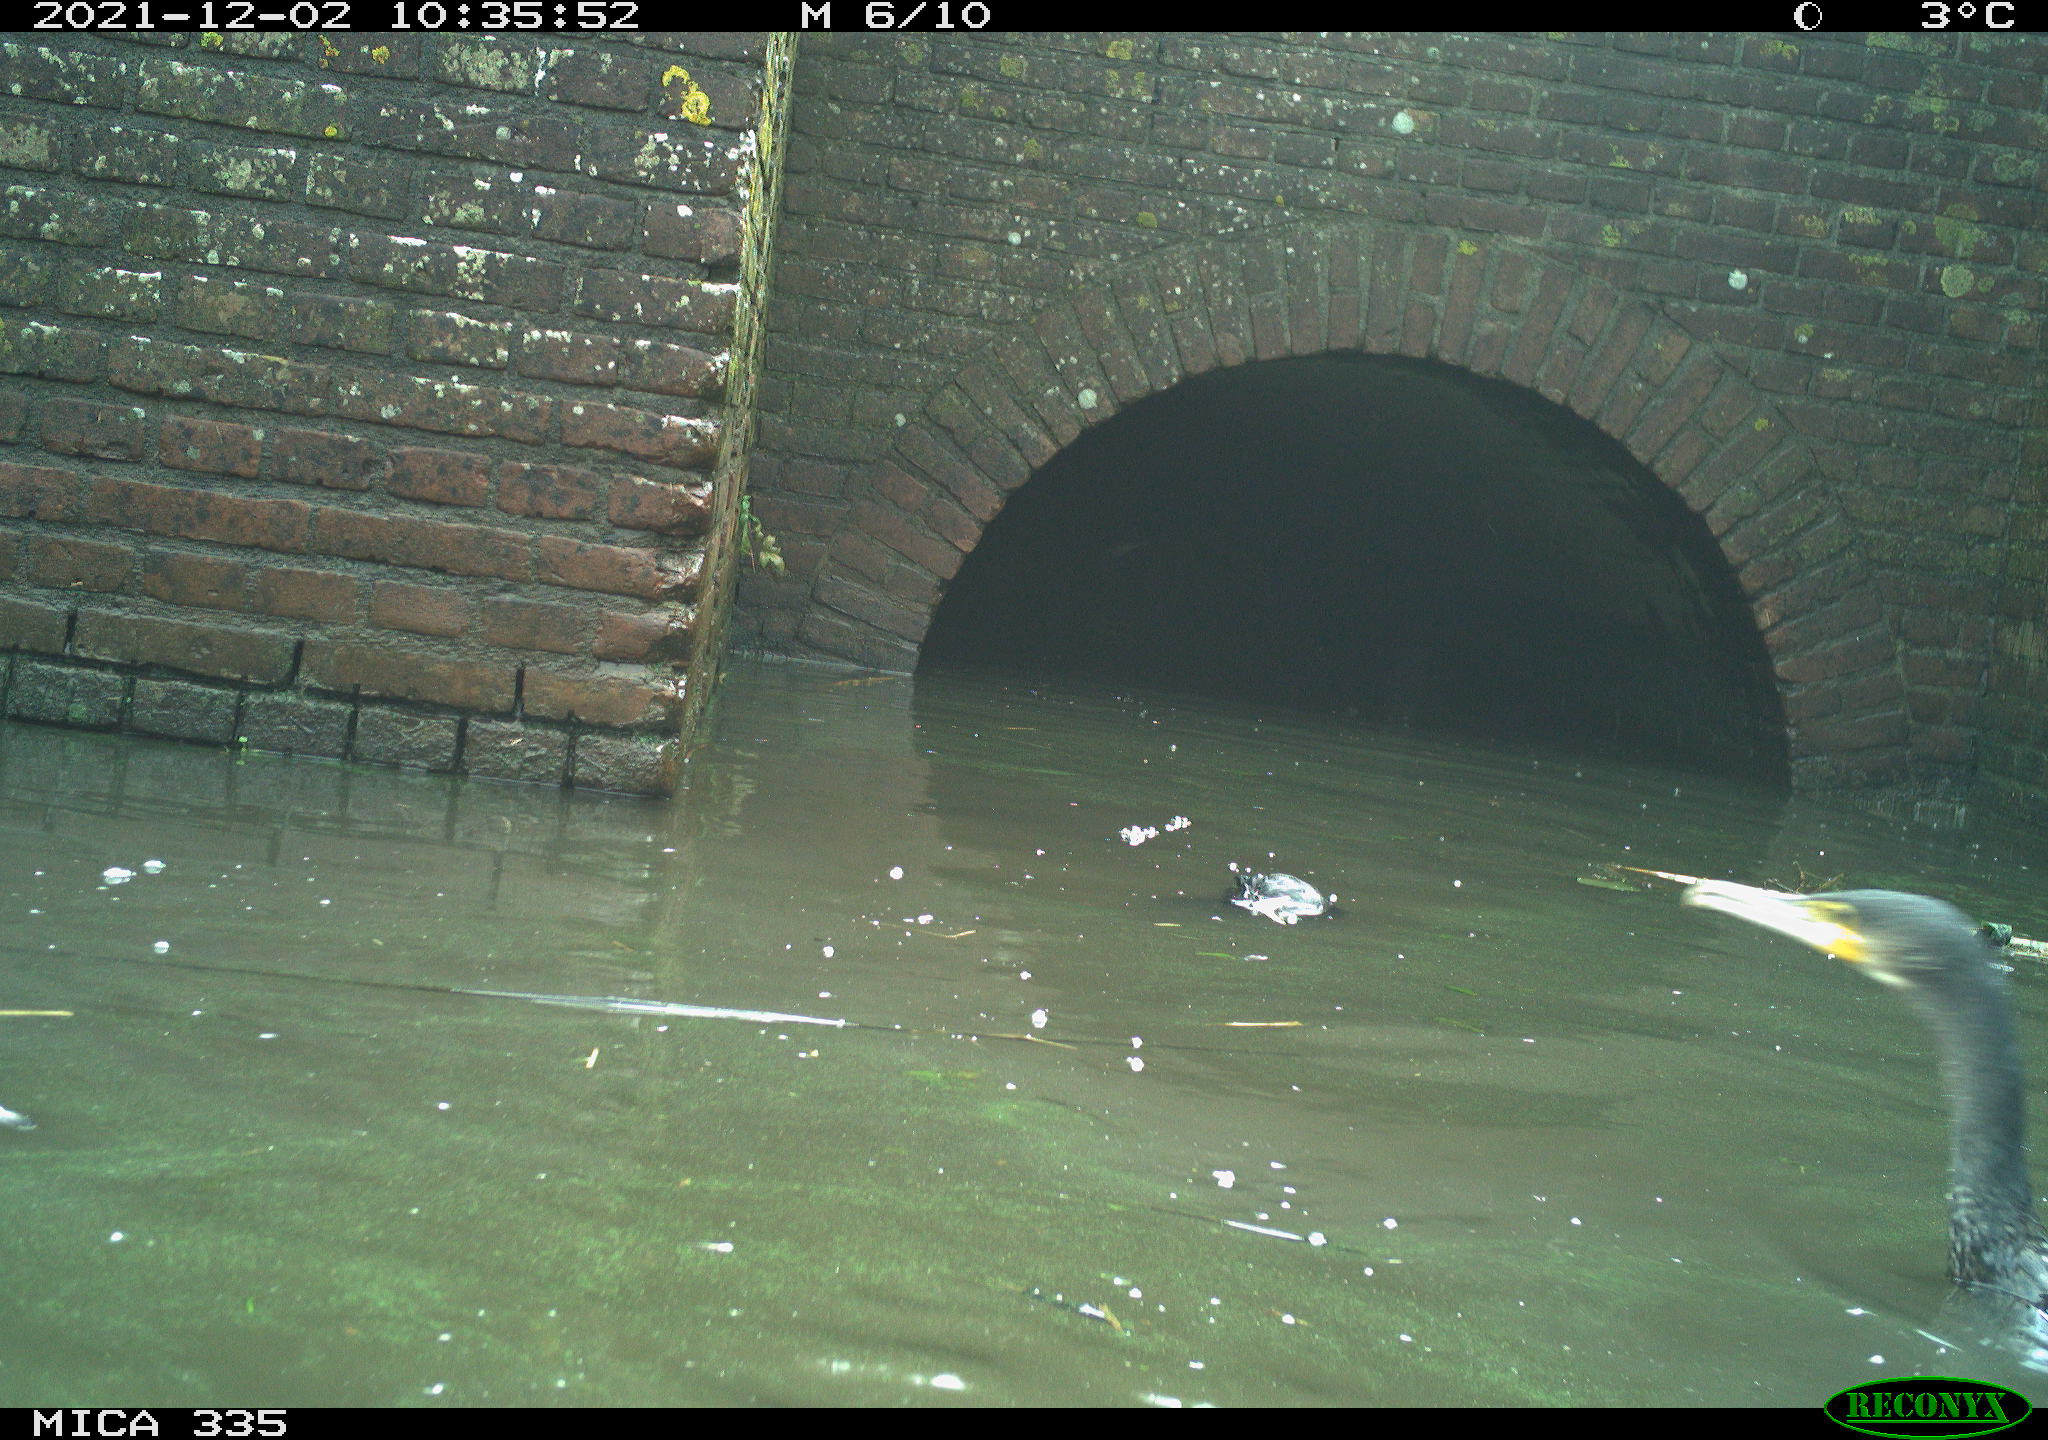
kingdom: Animalia
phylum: Chordata
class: Aves
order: Suliformes
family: Phalacrocoracidae
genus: Phalacrocorax
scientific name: Phalacrocorax carbo
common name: Great cormorant
